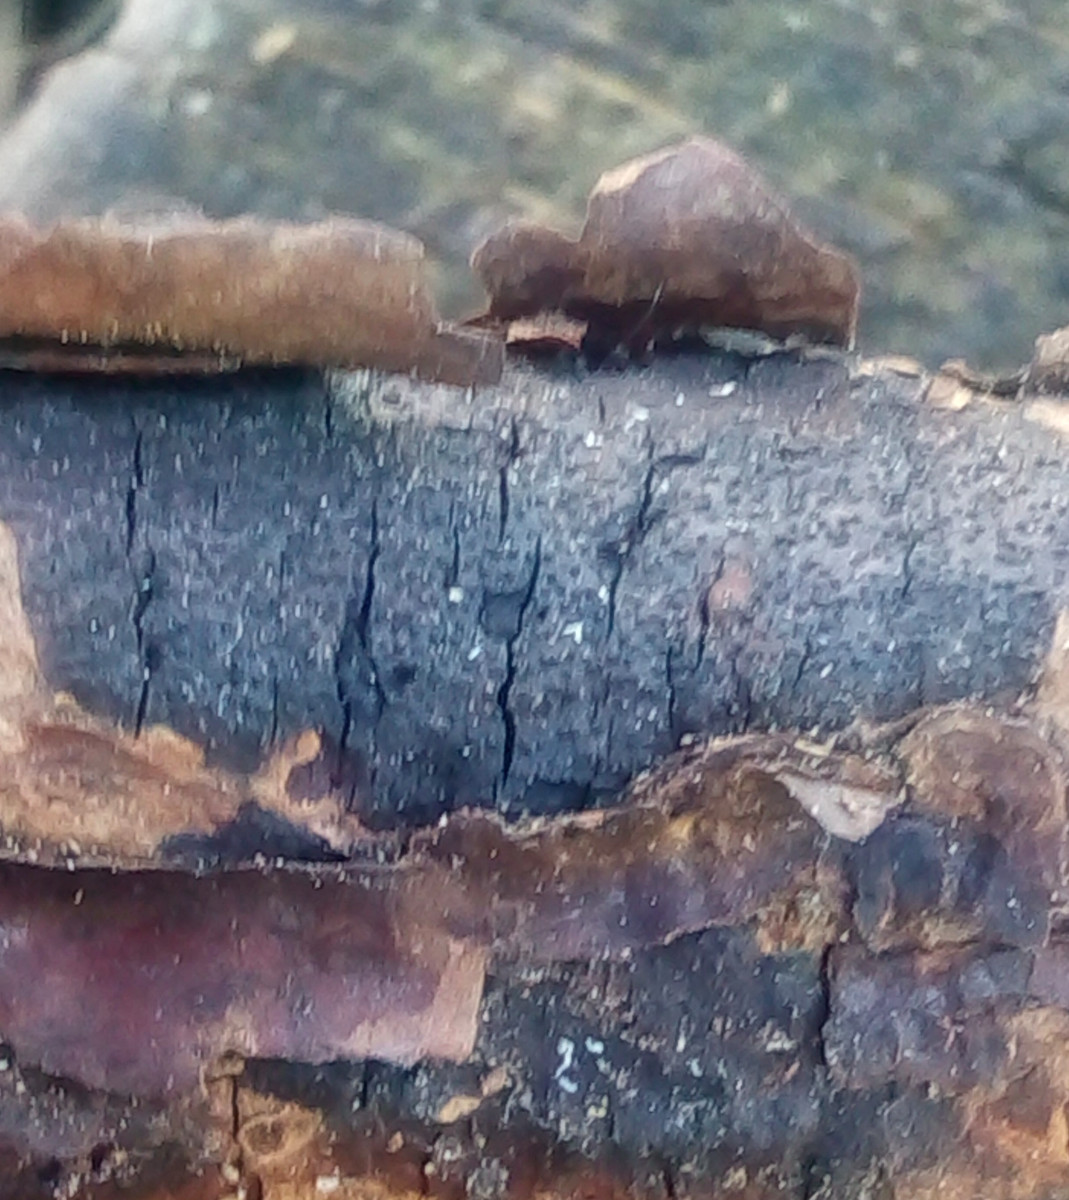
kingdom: Fungi
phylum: Ascomycota
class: Sordariomycetes
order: Xylariales
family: Diatrypaceae
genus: Eutypa
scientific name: Eutypa lata
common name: almindelig kulskorpe
